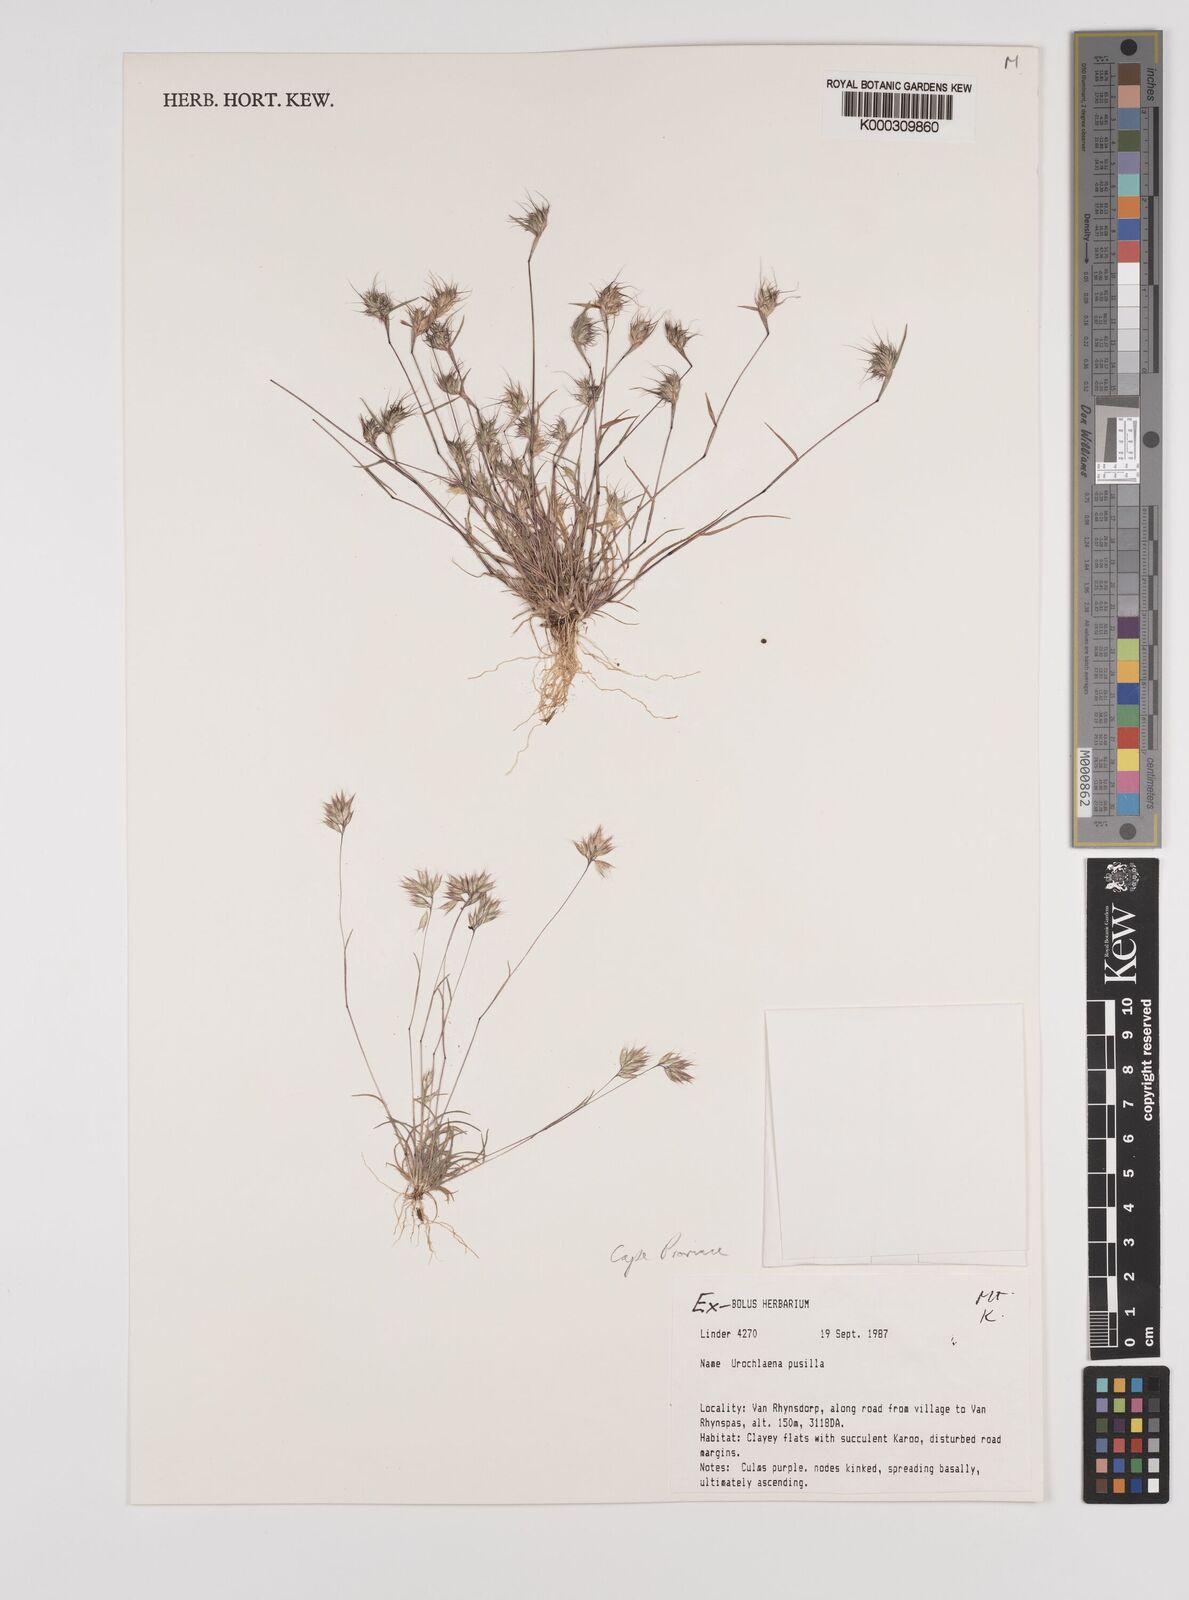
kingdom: Plantae
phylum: Tracheophyta
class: Liliopsida
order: Poales
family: Poaceae
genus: Tribolium
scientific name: Tribolium pusillum
